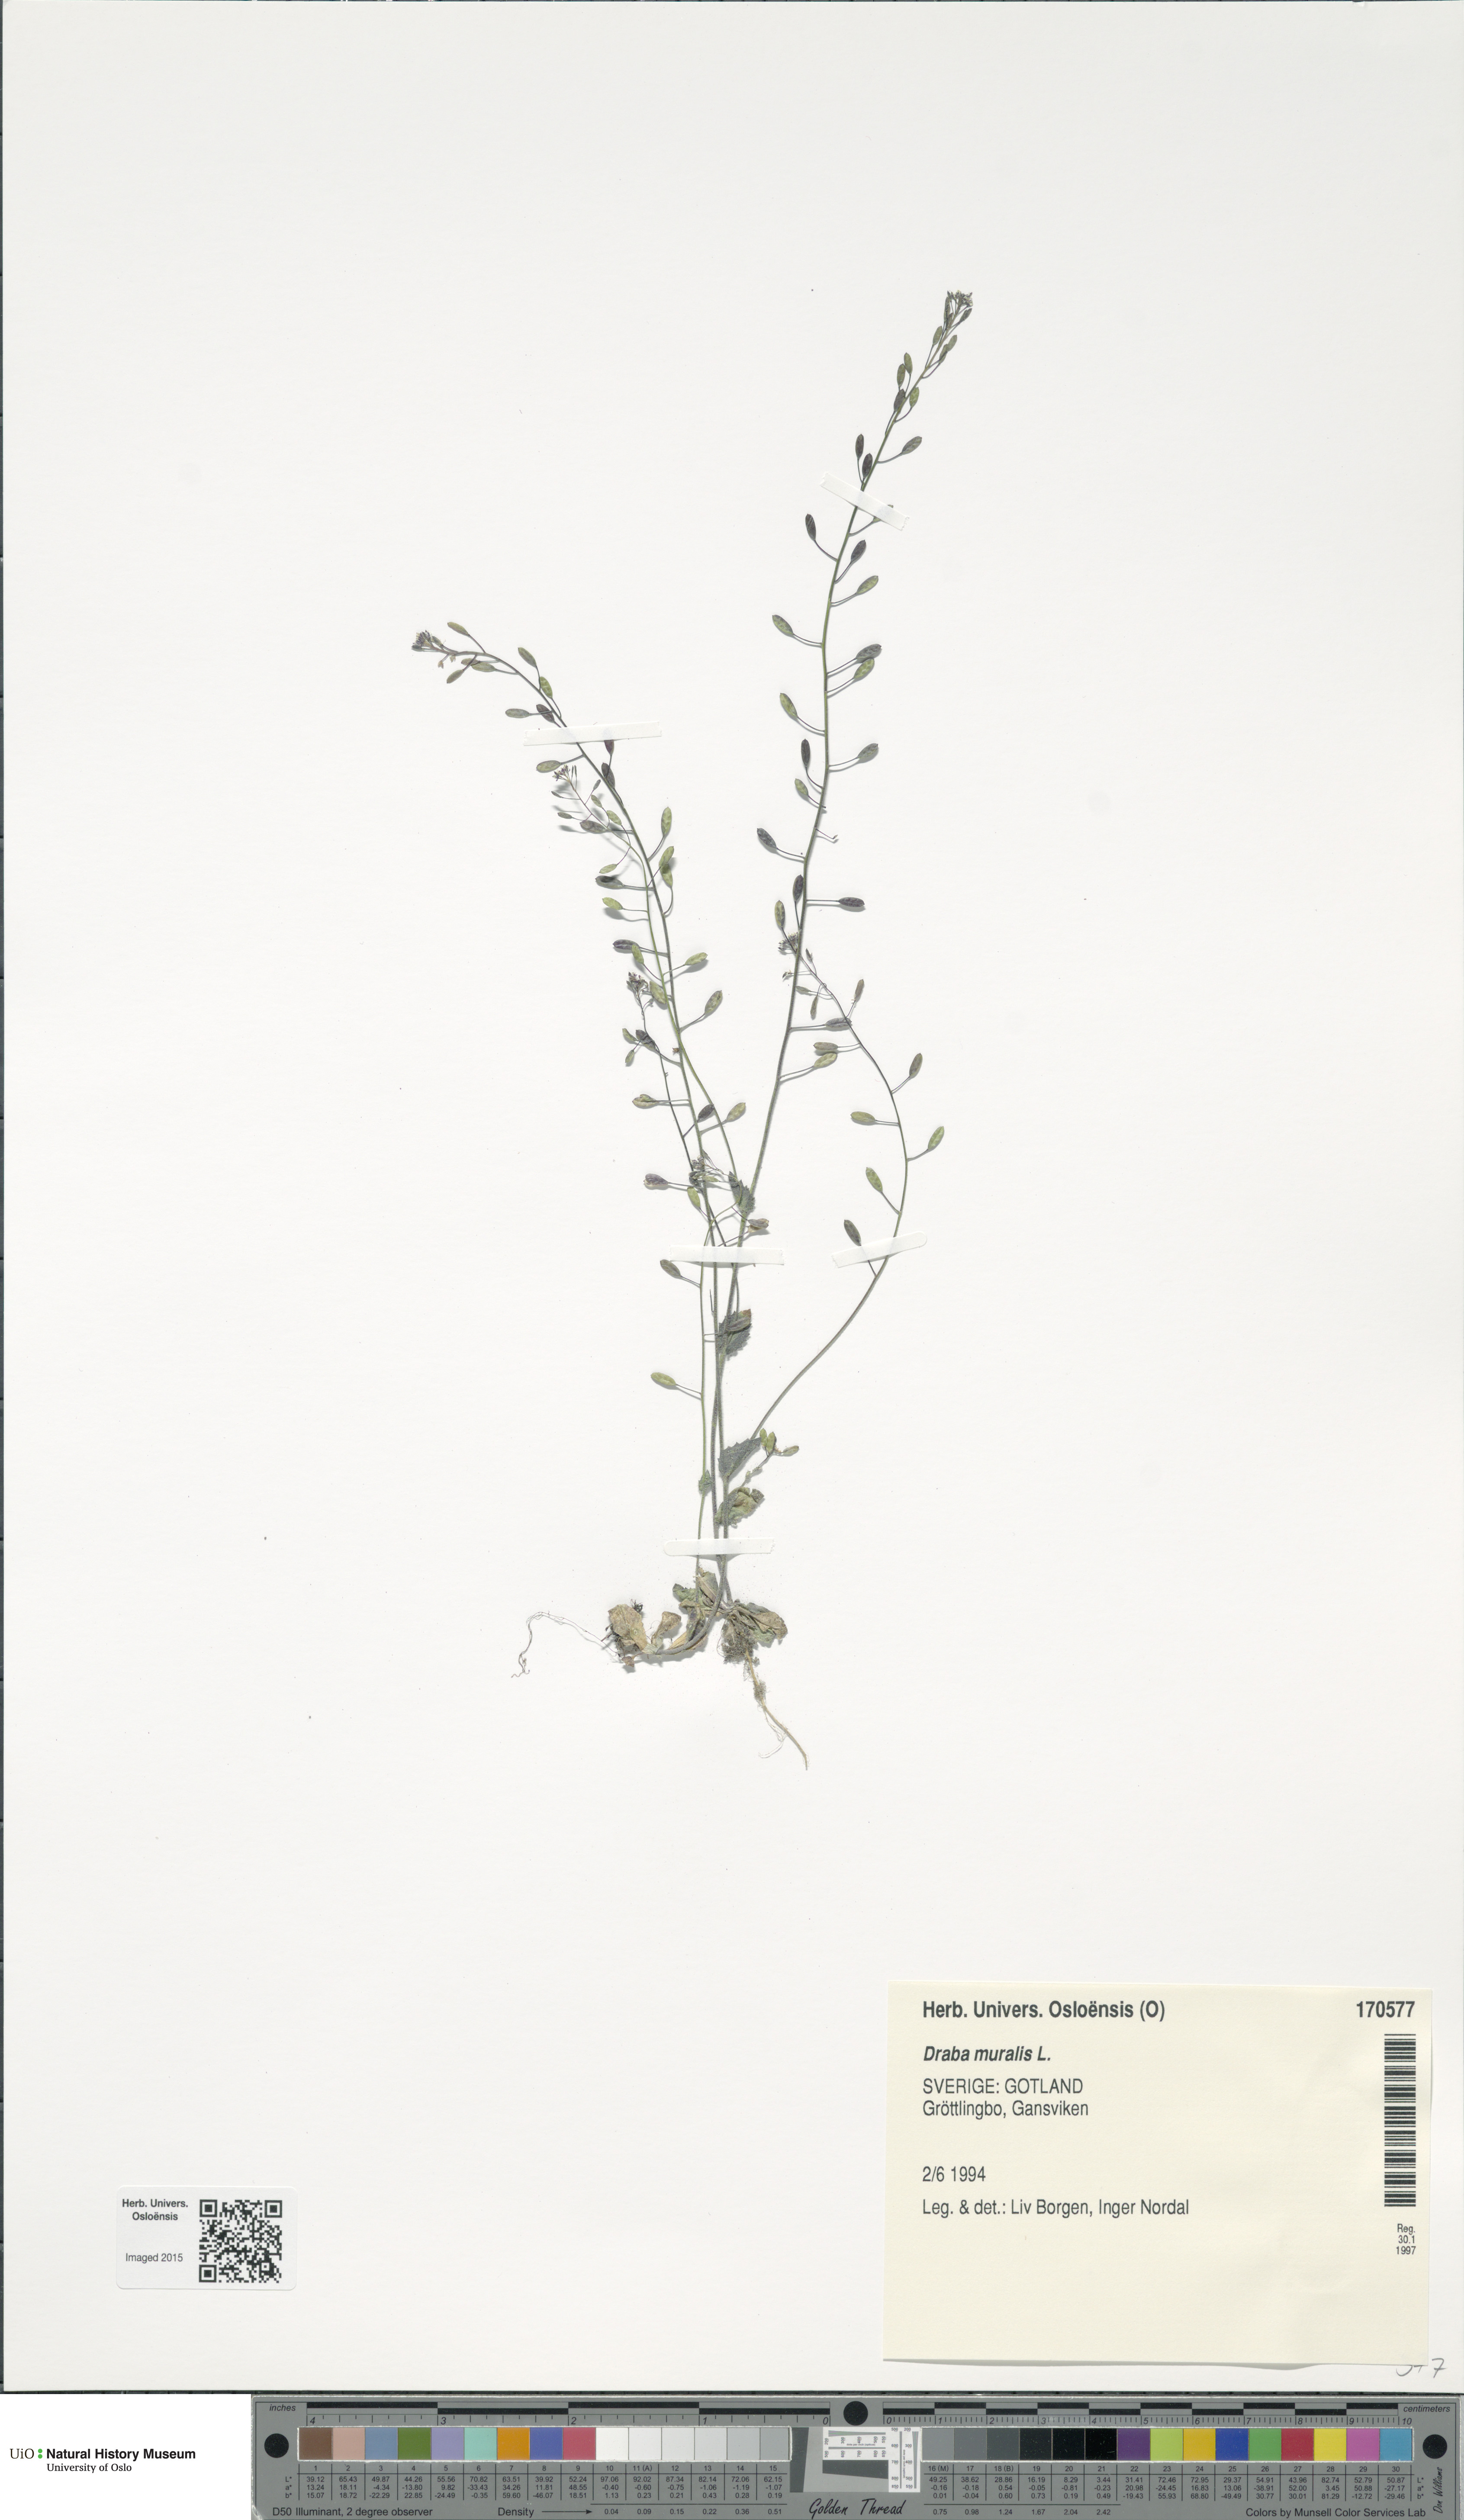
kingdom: Plantae
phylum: Tracheophyta
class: Magnoliopsida
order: Brassicales
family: Brassicaceae
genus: Drabella
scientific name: Drabella muralis
